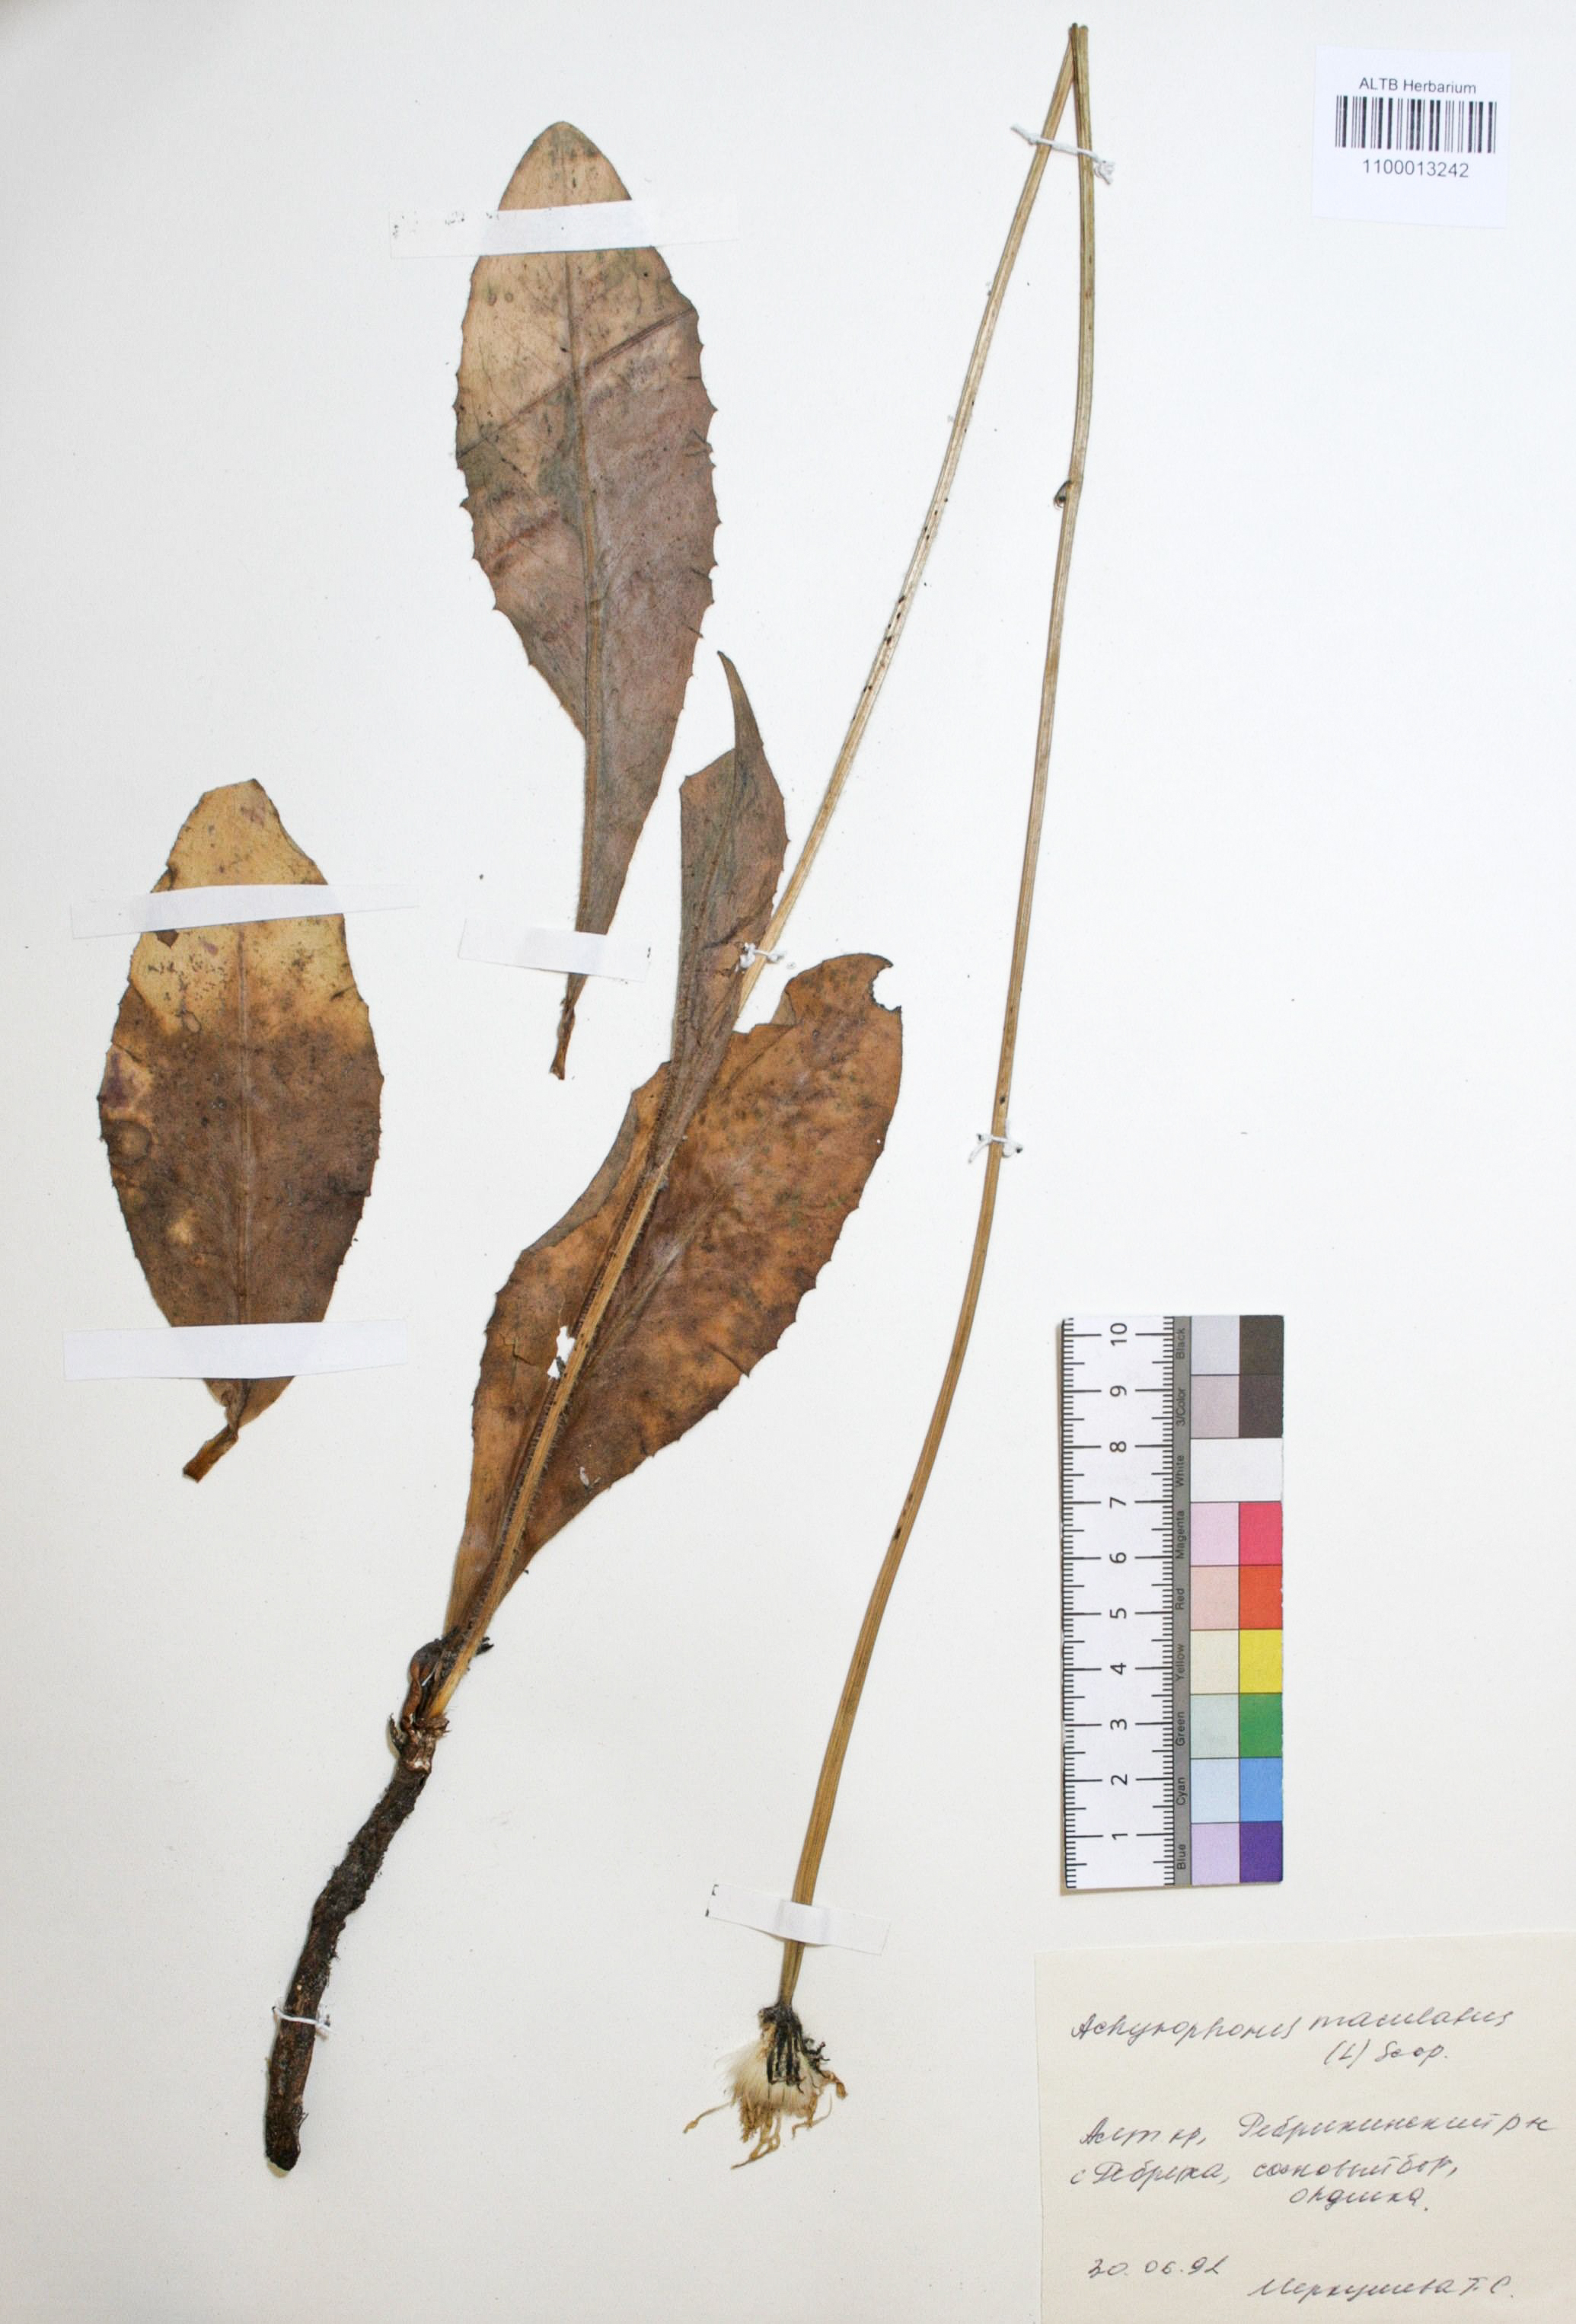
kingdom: Plantae
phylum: Tracheophyta
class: Magnoliopsida
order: Asterales
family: Asteraceae
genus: Trommsdorffia
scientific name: Trommsdorffia maculata
